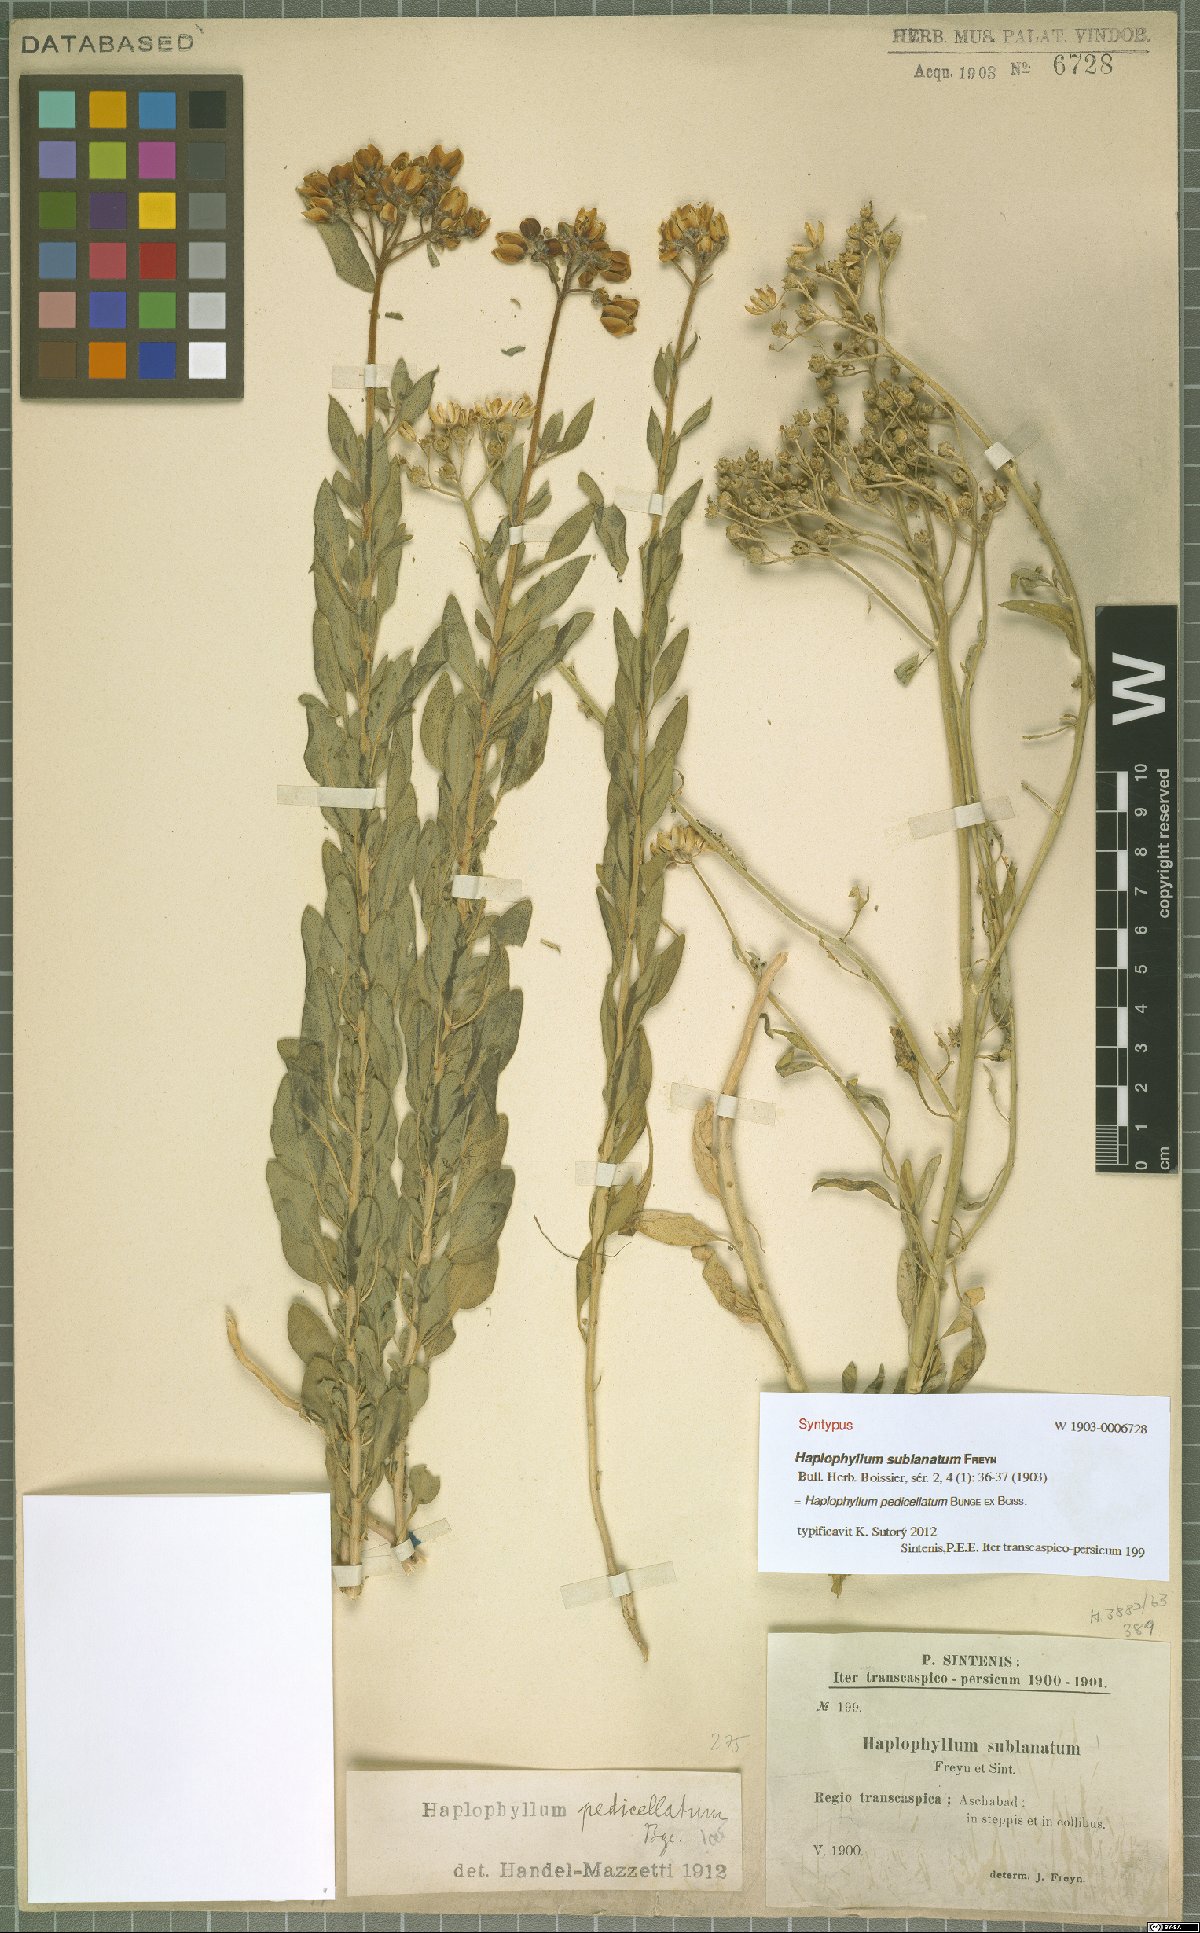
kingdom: Plantae
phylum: Tracheophyta
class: Magnoliopsida
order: Sapindales
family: Rutaceae
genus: Haplophyllum
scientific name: Haplophyllum pedicellatum
